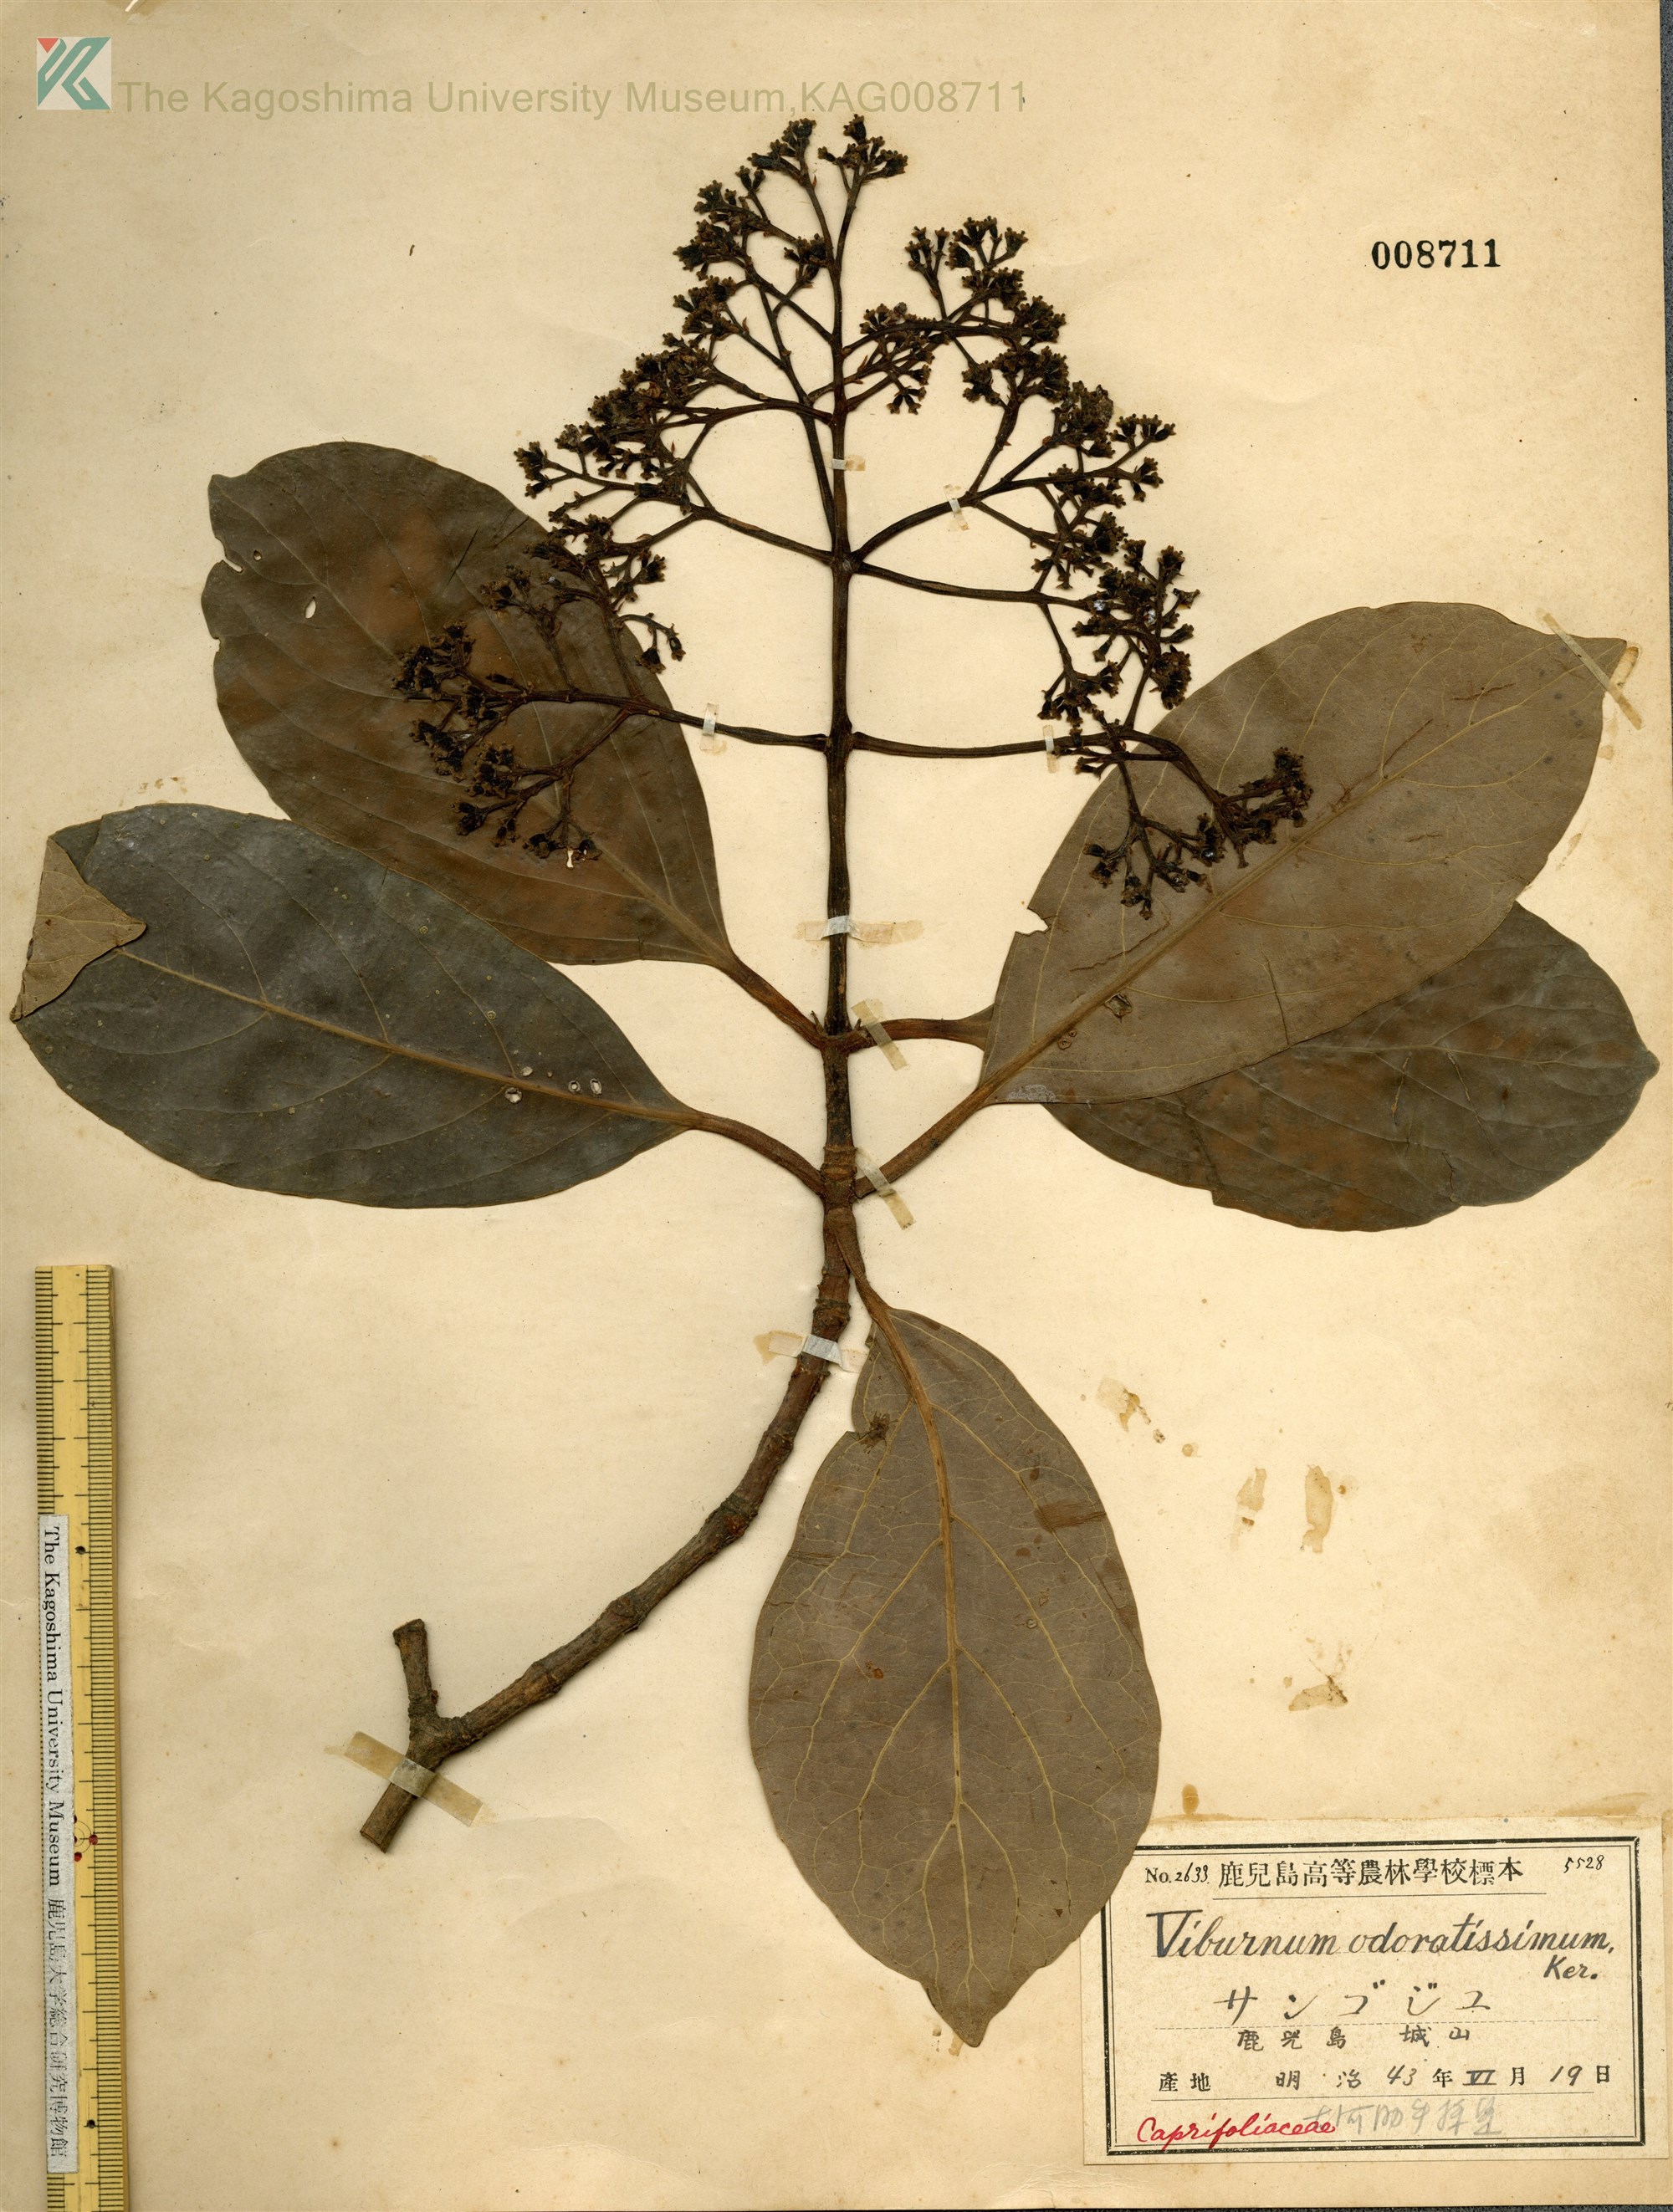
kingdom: Plantae
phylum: Tracheophyta
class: Magnoliopsida
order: Dipsacales
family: Viburnaceae
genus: Viburnum
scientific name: Viburnum odoratissimum
